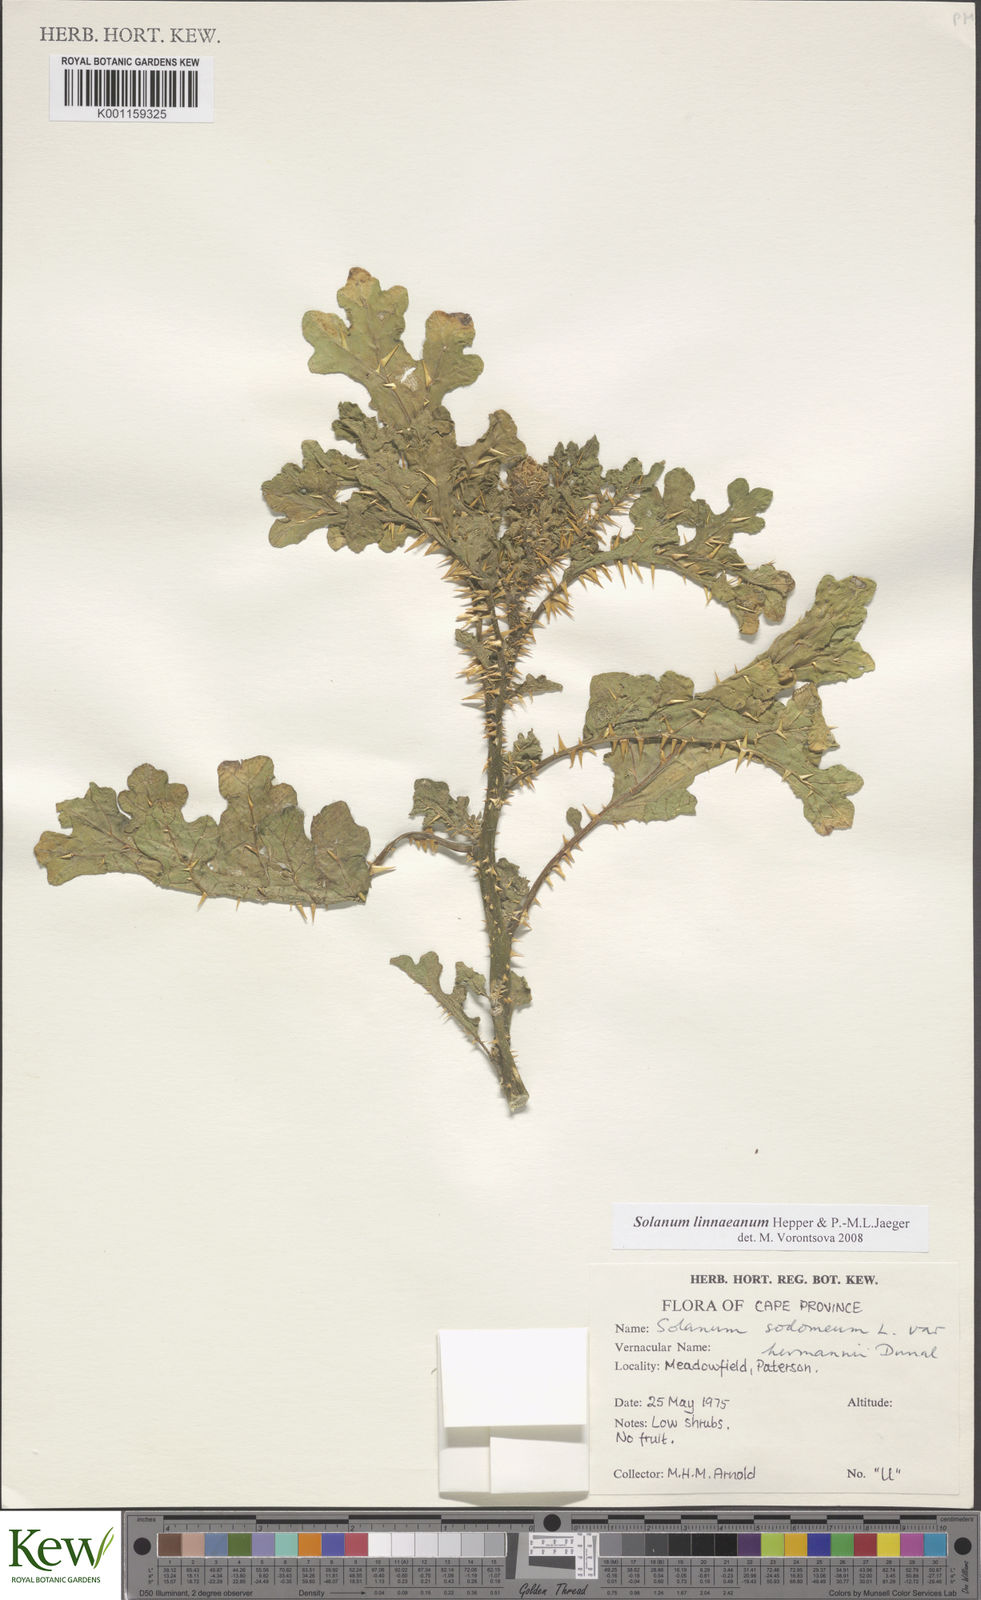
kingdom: Plantae
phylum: Tracheophyta
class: Magnoliopsida
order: Solanales
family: Solanaceae
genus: Solanum
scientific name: Solanum linnaeanum
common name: Nightshade
